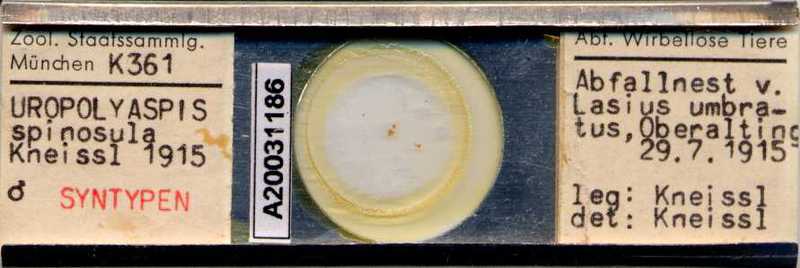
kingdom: Animalia
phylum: Arthropoda
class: Arachnida
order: Mesostigmata
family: Uropodidae
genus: Uropoda
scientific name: Uropoda spinosula
